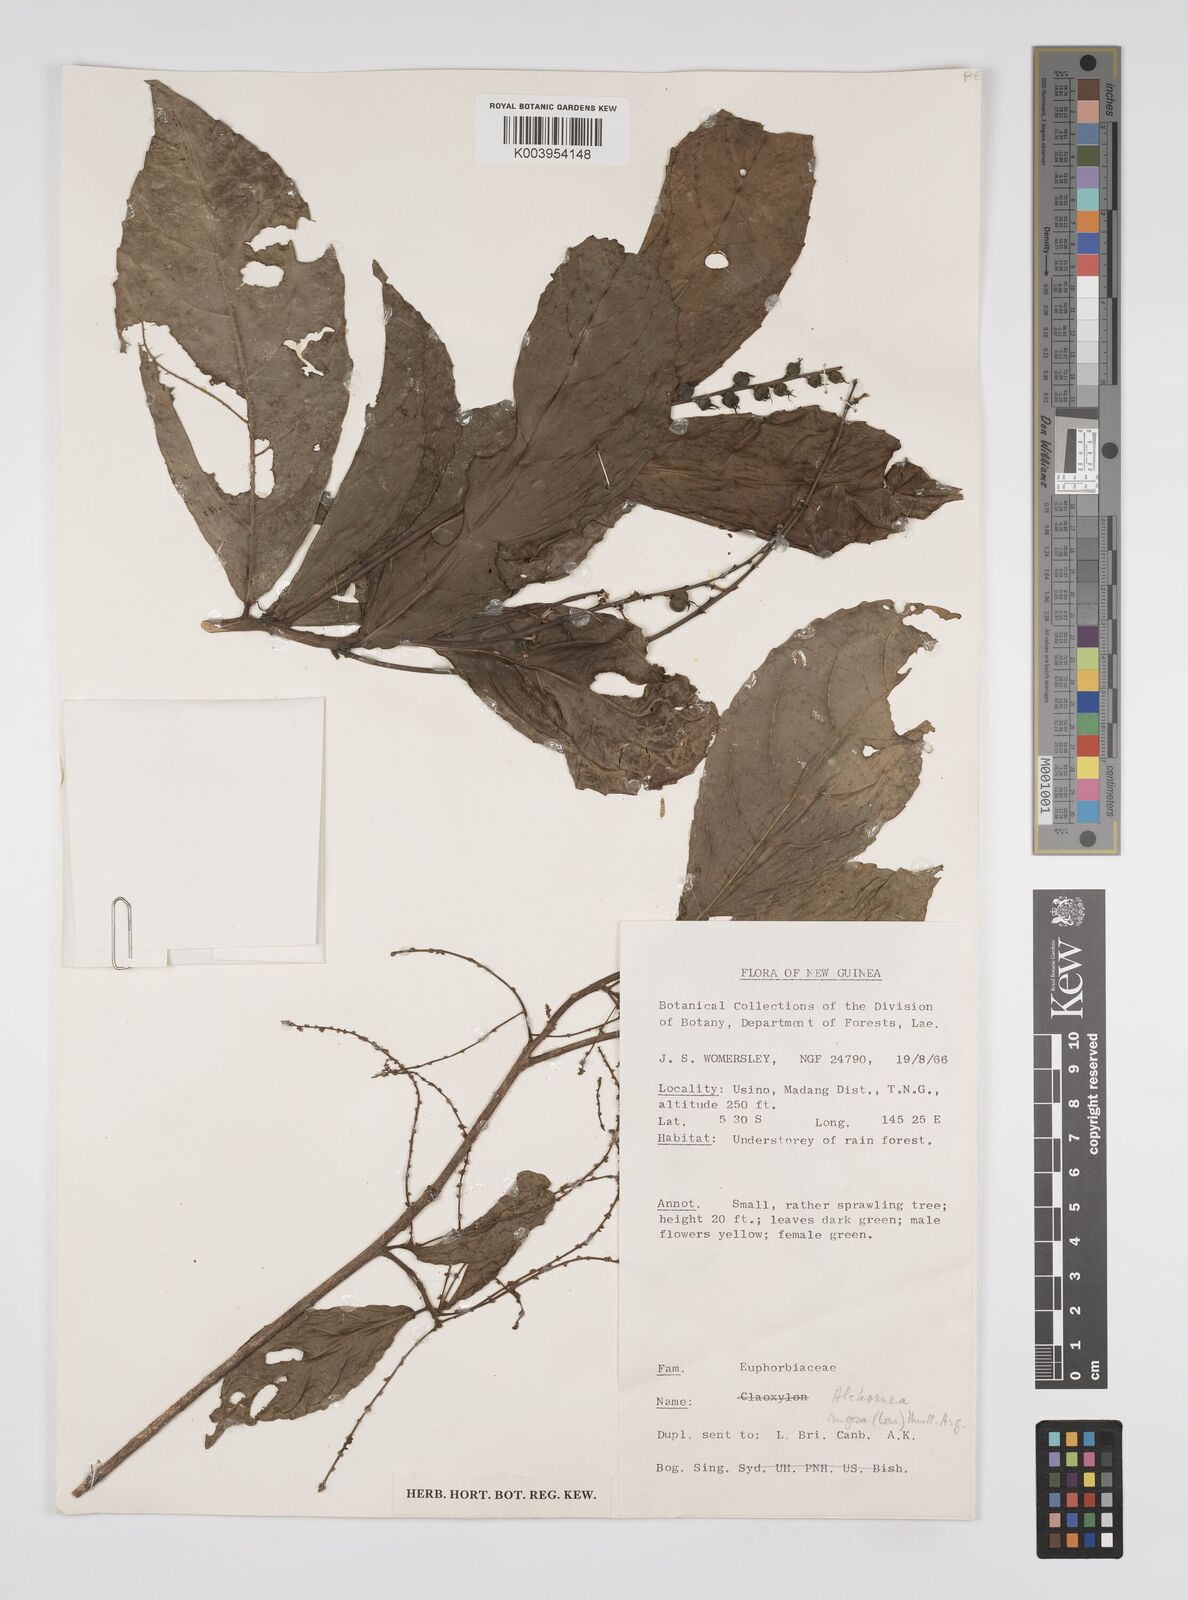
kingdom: Plantae
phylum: Tracheophyta
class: Magnoliopsida
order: Malpighiales
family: Euphorbiaceae
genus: Alchornea
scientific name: Alchornea rugosa
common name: Alchorntree
